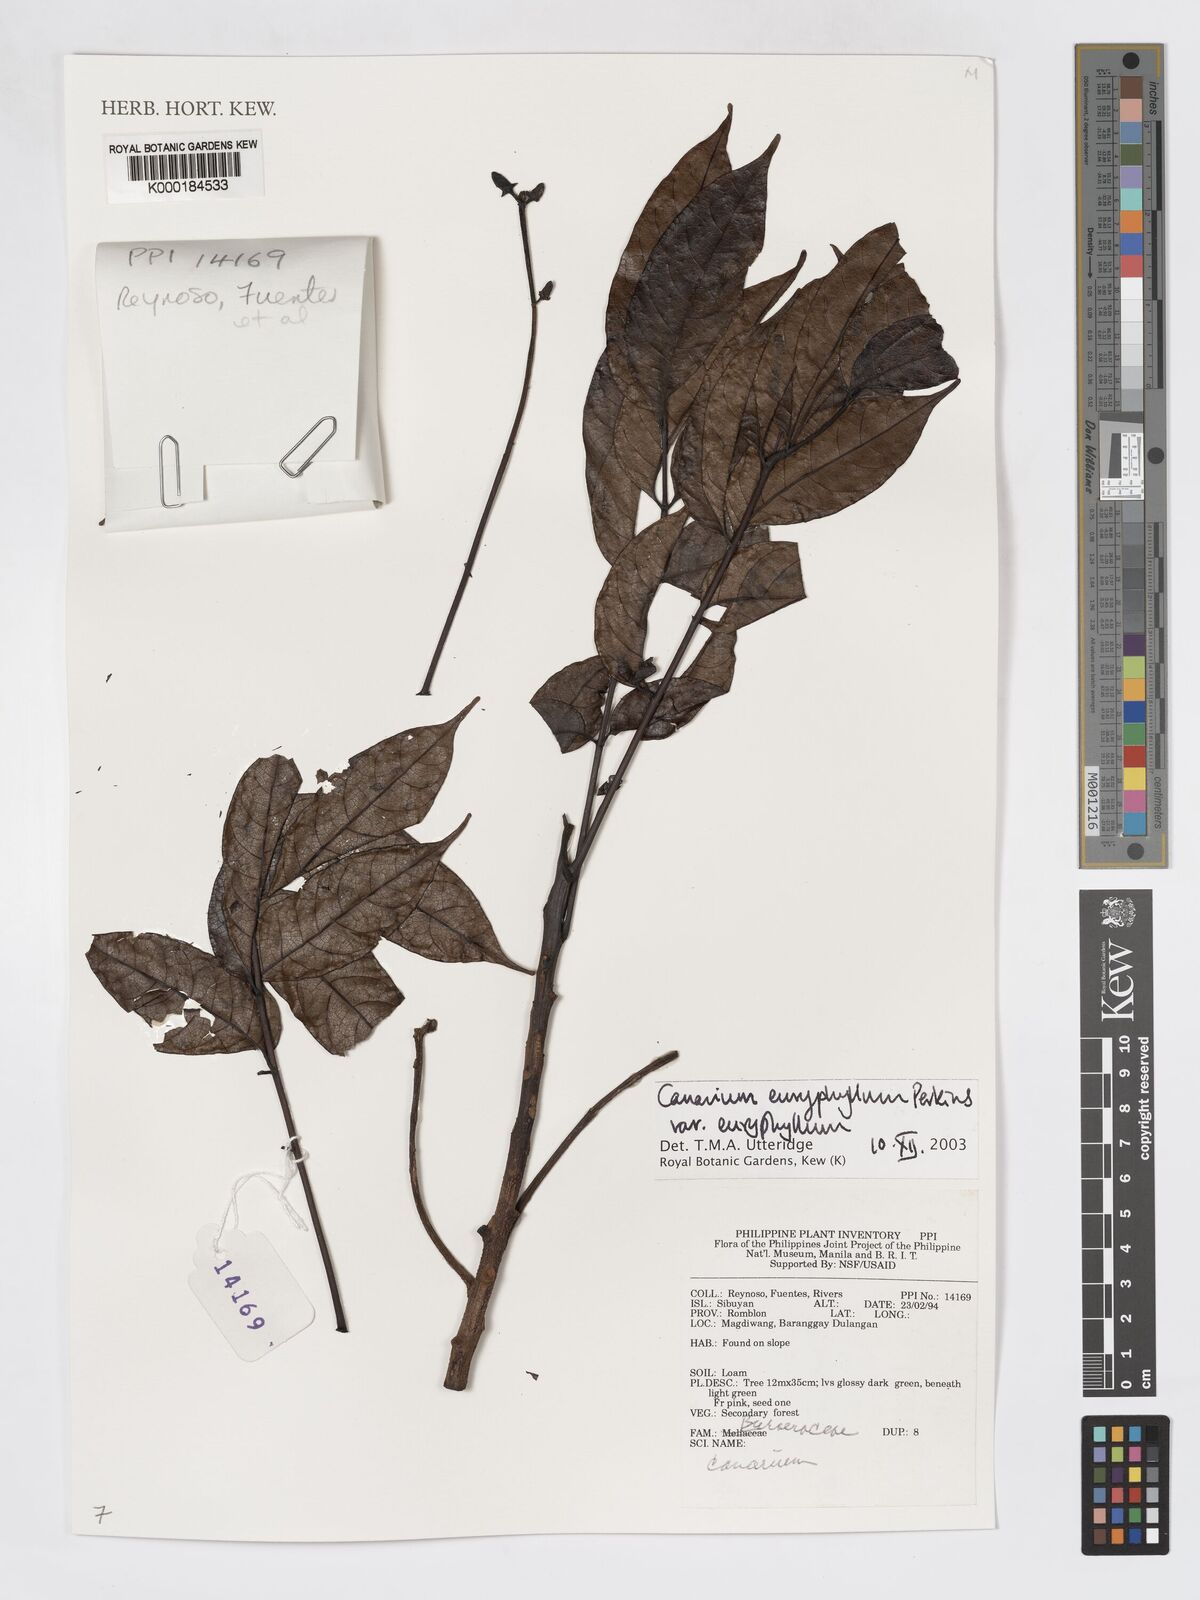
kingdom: Plantae
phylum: Tracheophyta
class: Magnoliopsida
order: Sapindales
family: Burseraceae
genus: Canarium
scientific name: Canarium euryphyllum
